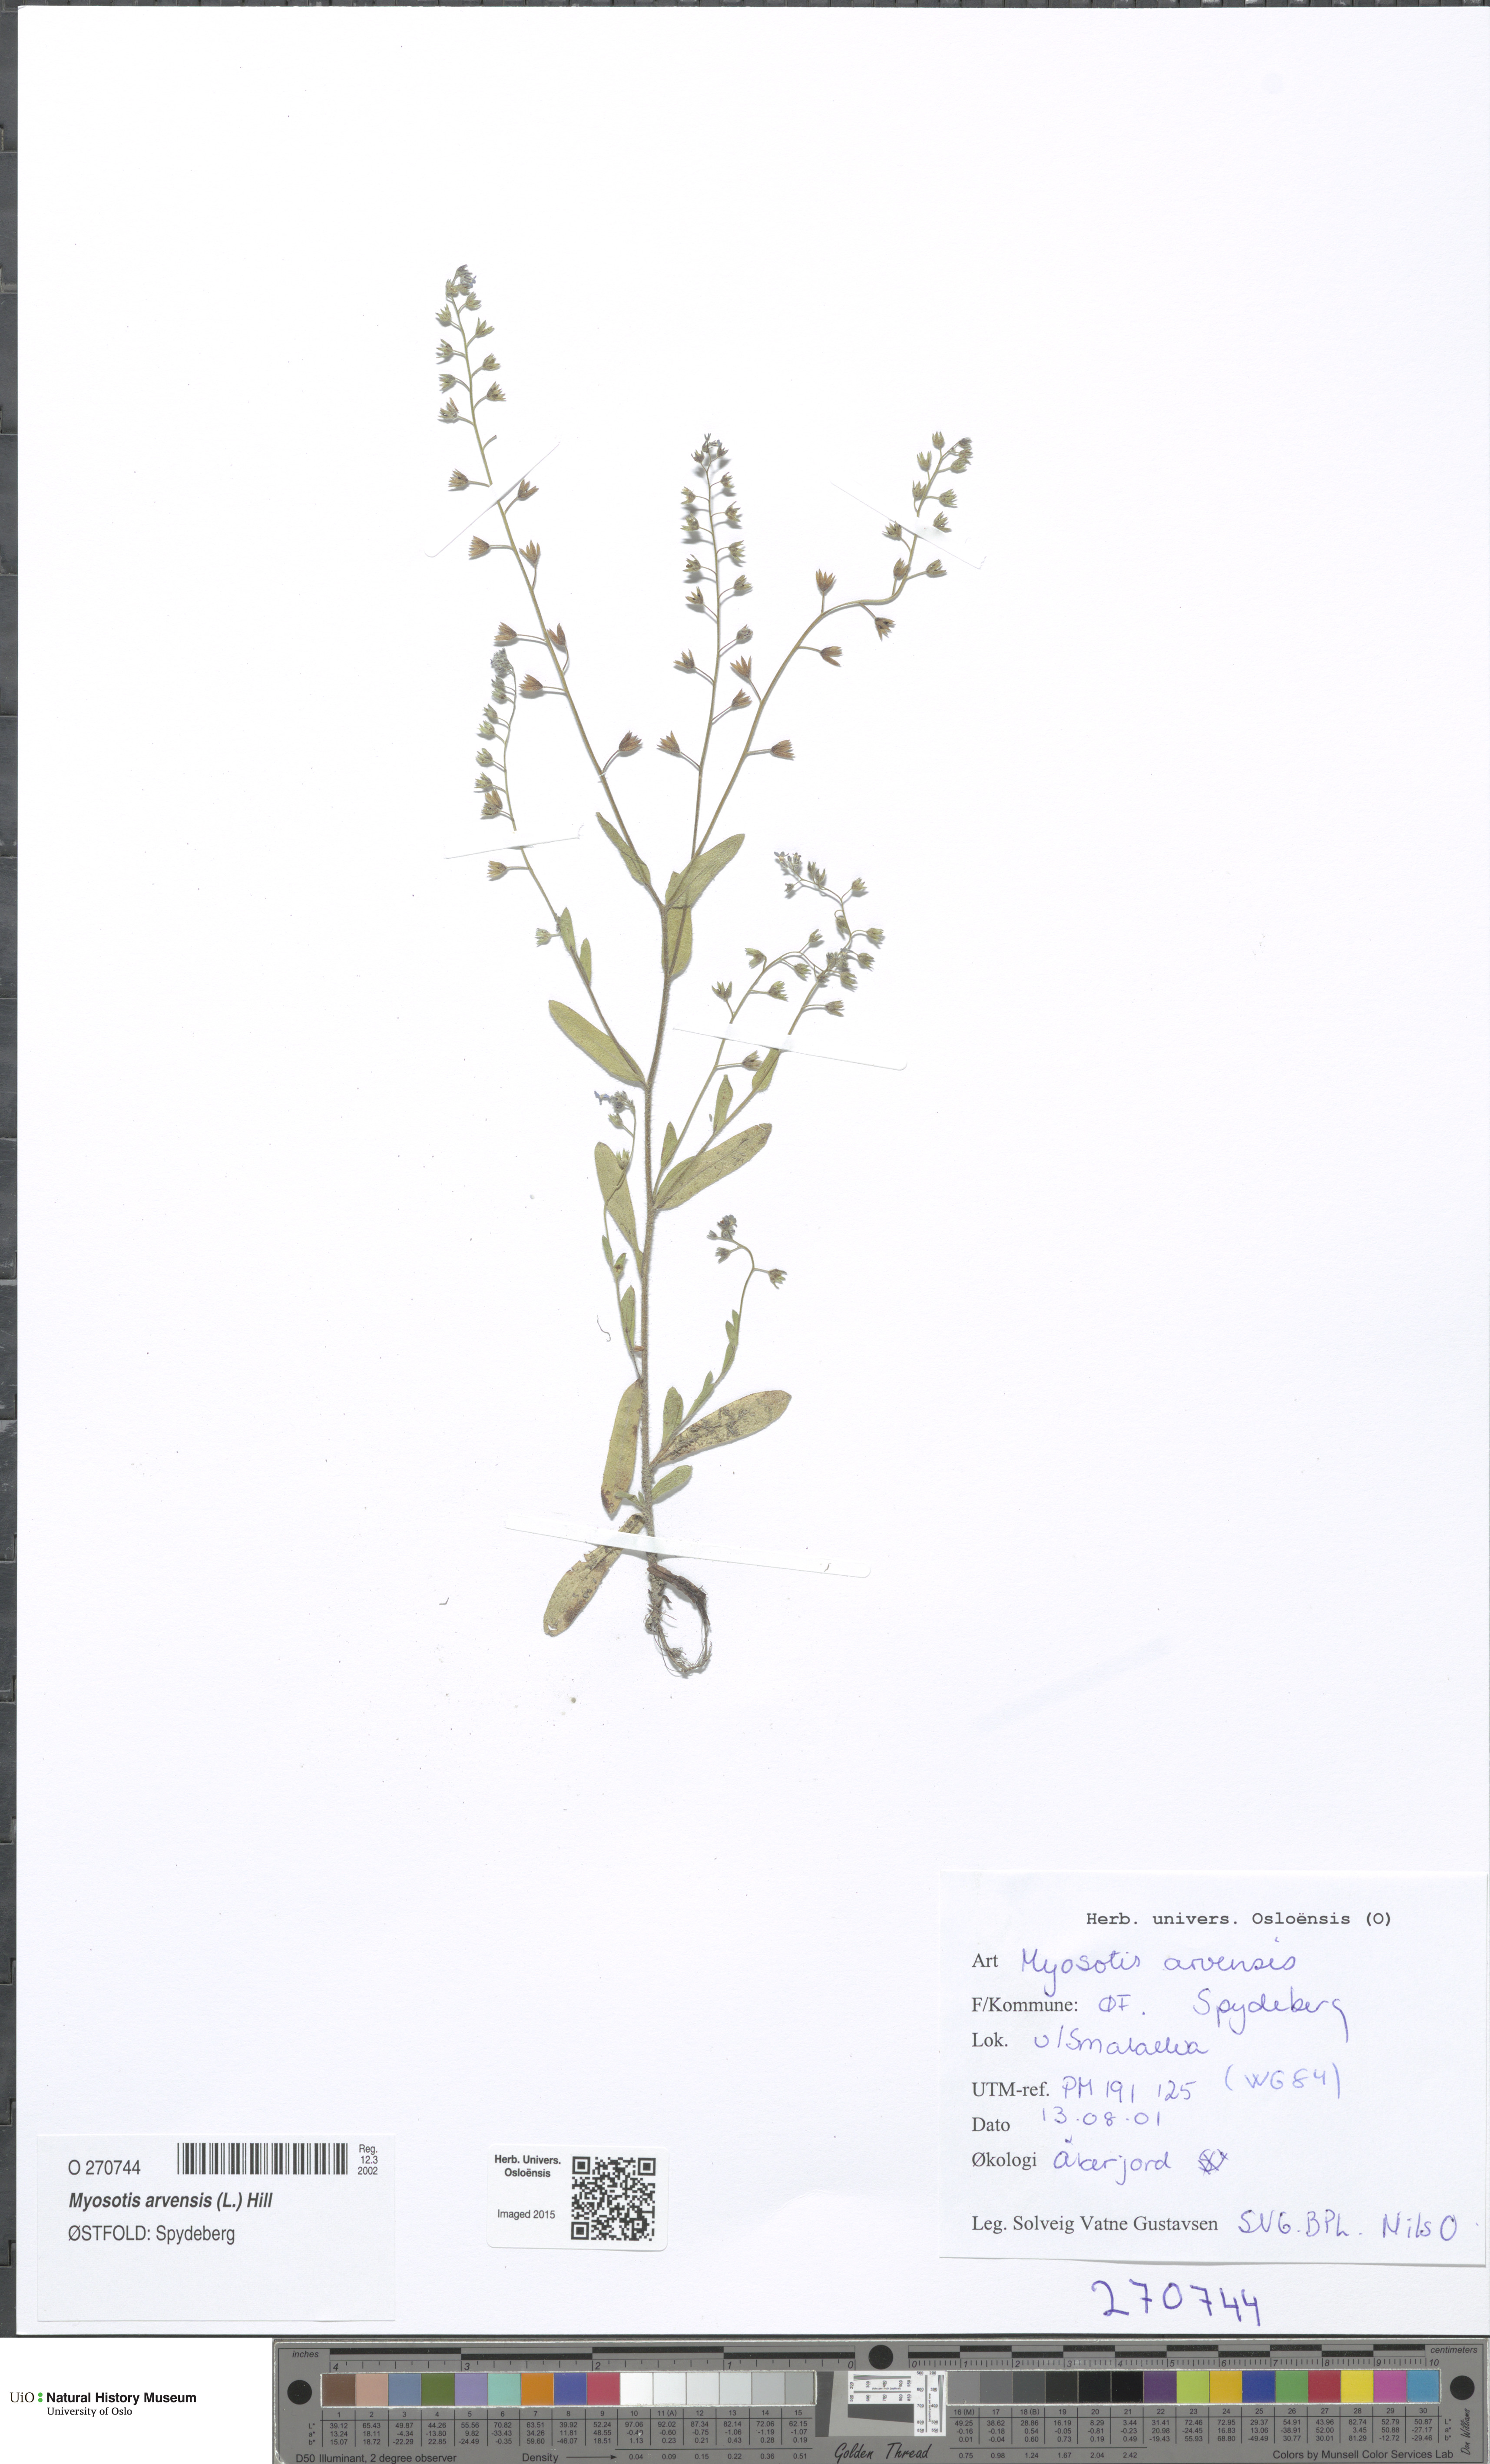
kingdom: Plantae
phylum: Tracheophyta
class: Magnoliopsida
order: Boraginales
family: Boraginaceae
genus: Myosotis
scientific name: Myosotis arvensis
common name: Field forget-me-not
